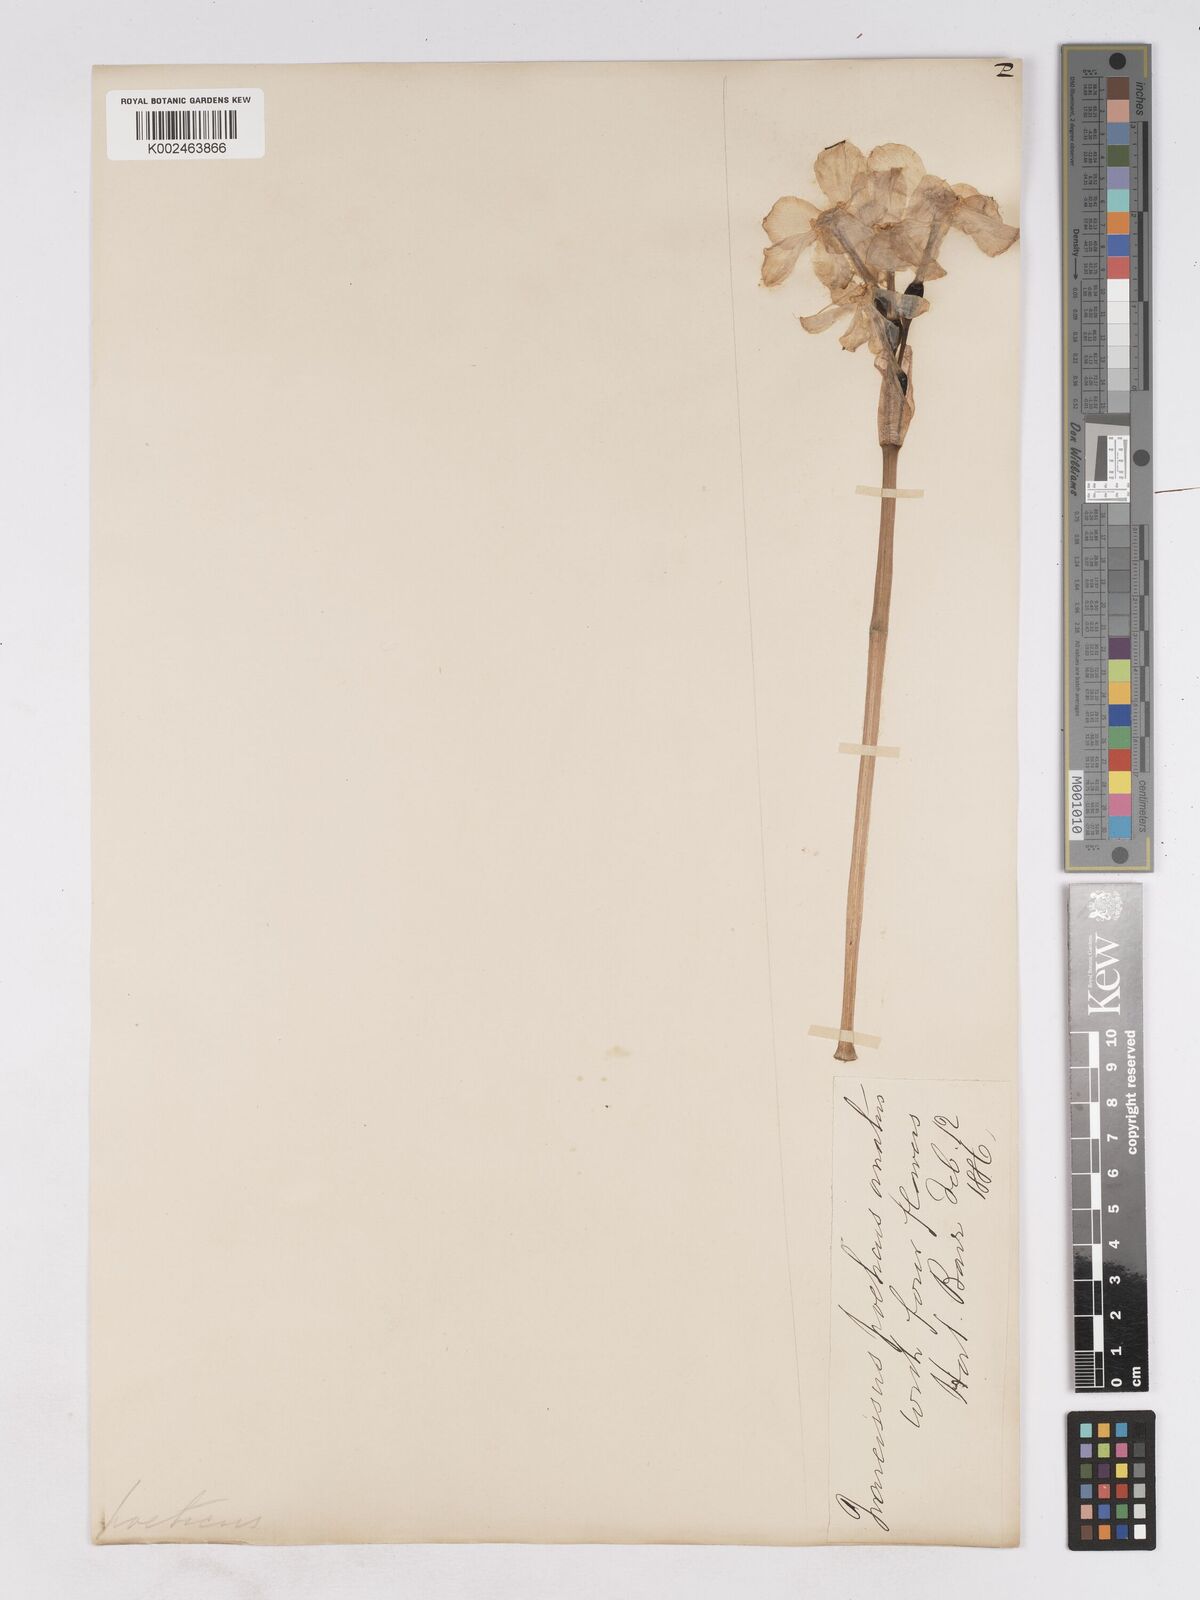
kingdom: Plantae
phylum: Tracheophyta
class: Liliopsida
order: Asparagales
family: Amaryllidaceae
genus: Narcissus
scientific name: Narcissus
